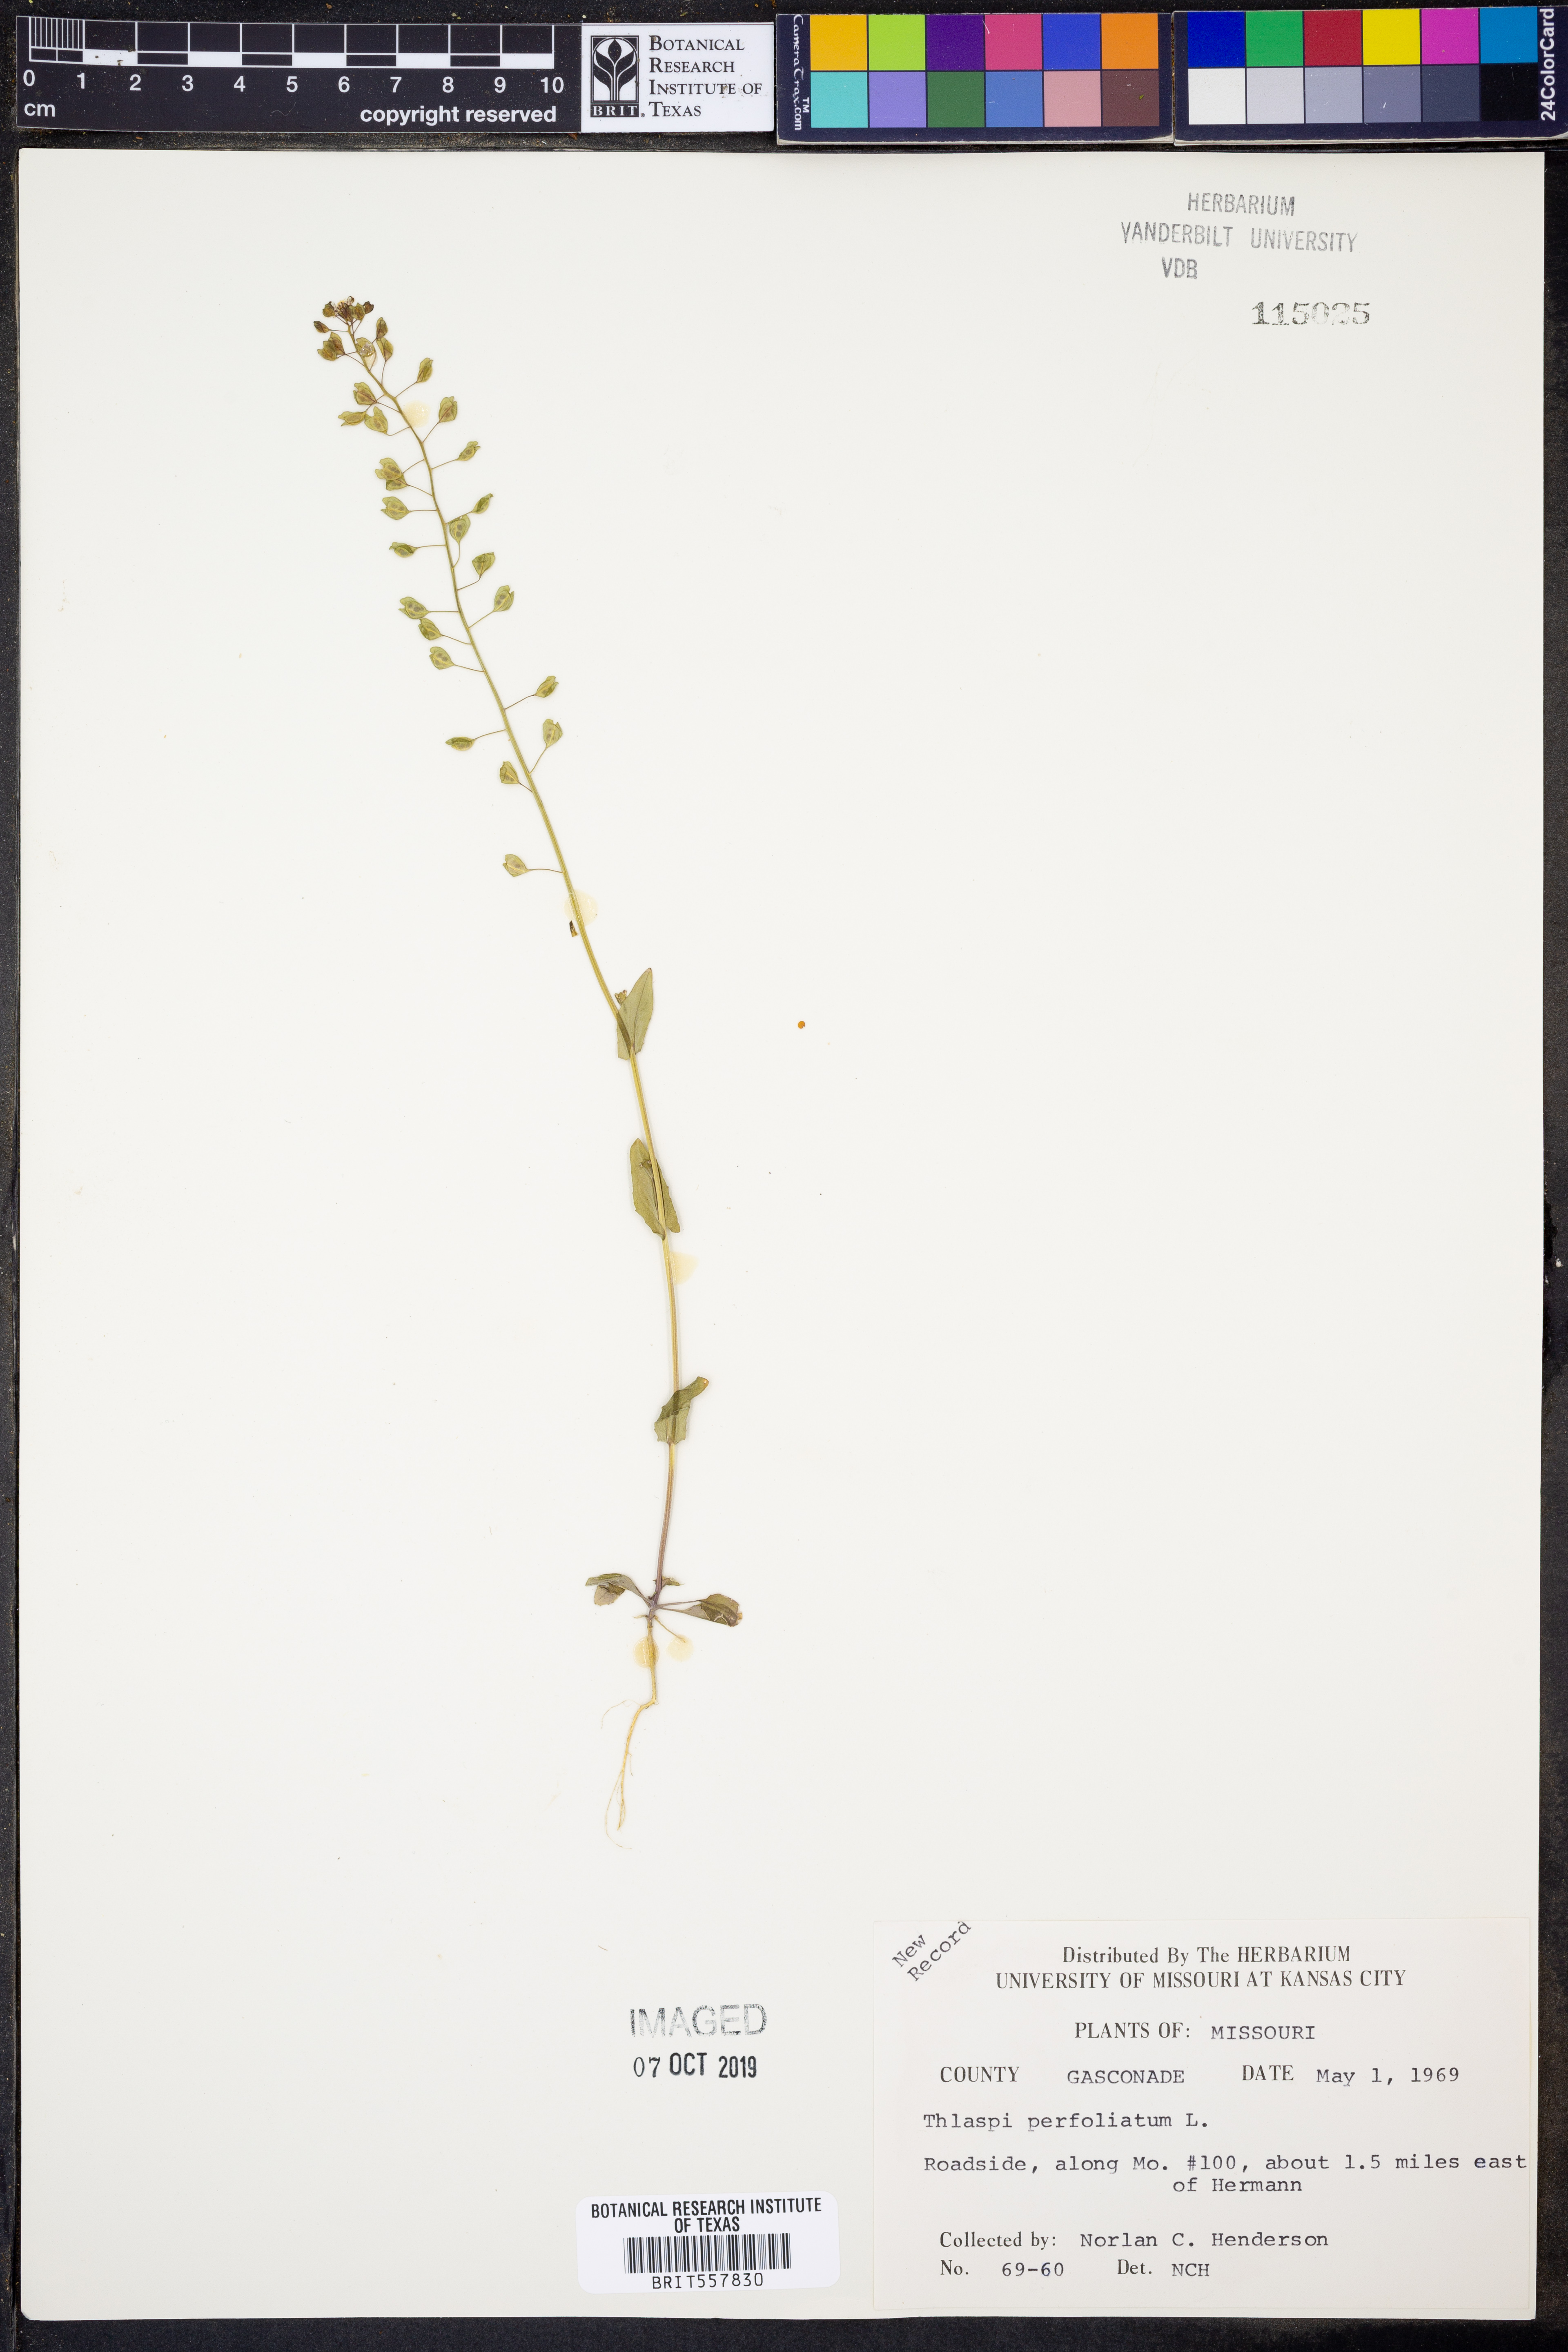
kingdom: Plantae
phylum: Tracheophyta
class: Magnoliopsida
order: Brassicales
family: Brassicaceae
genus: Noccaea
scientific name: Noccaea perfoliata
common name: Perfoliate pennycress
